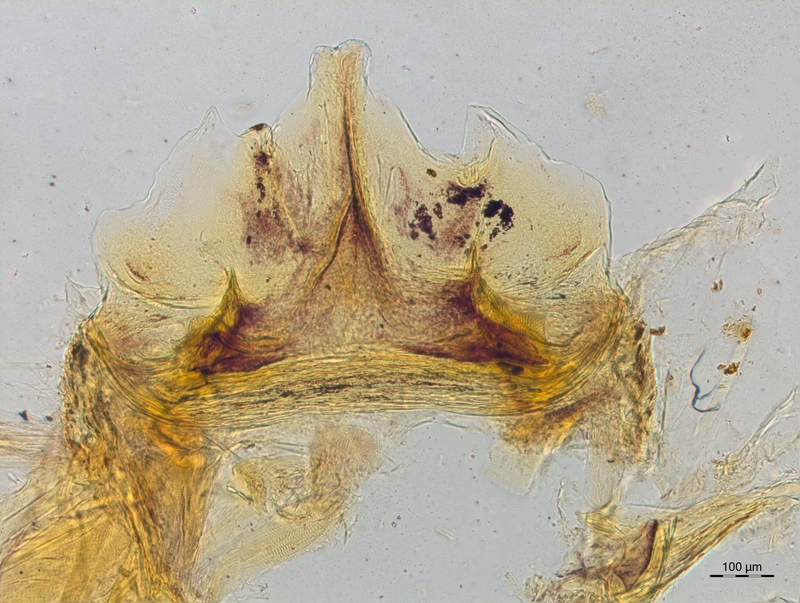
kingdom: Animalia
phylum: Arthropoda
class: Diplopoda
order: Chordeumatida
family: Craspedosomatidae
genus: Craspedosoma
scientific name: Craspedosoma taurinorum
